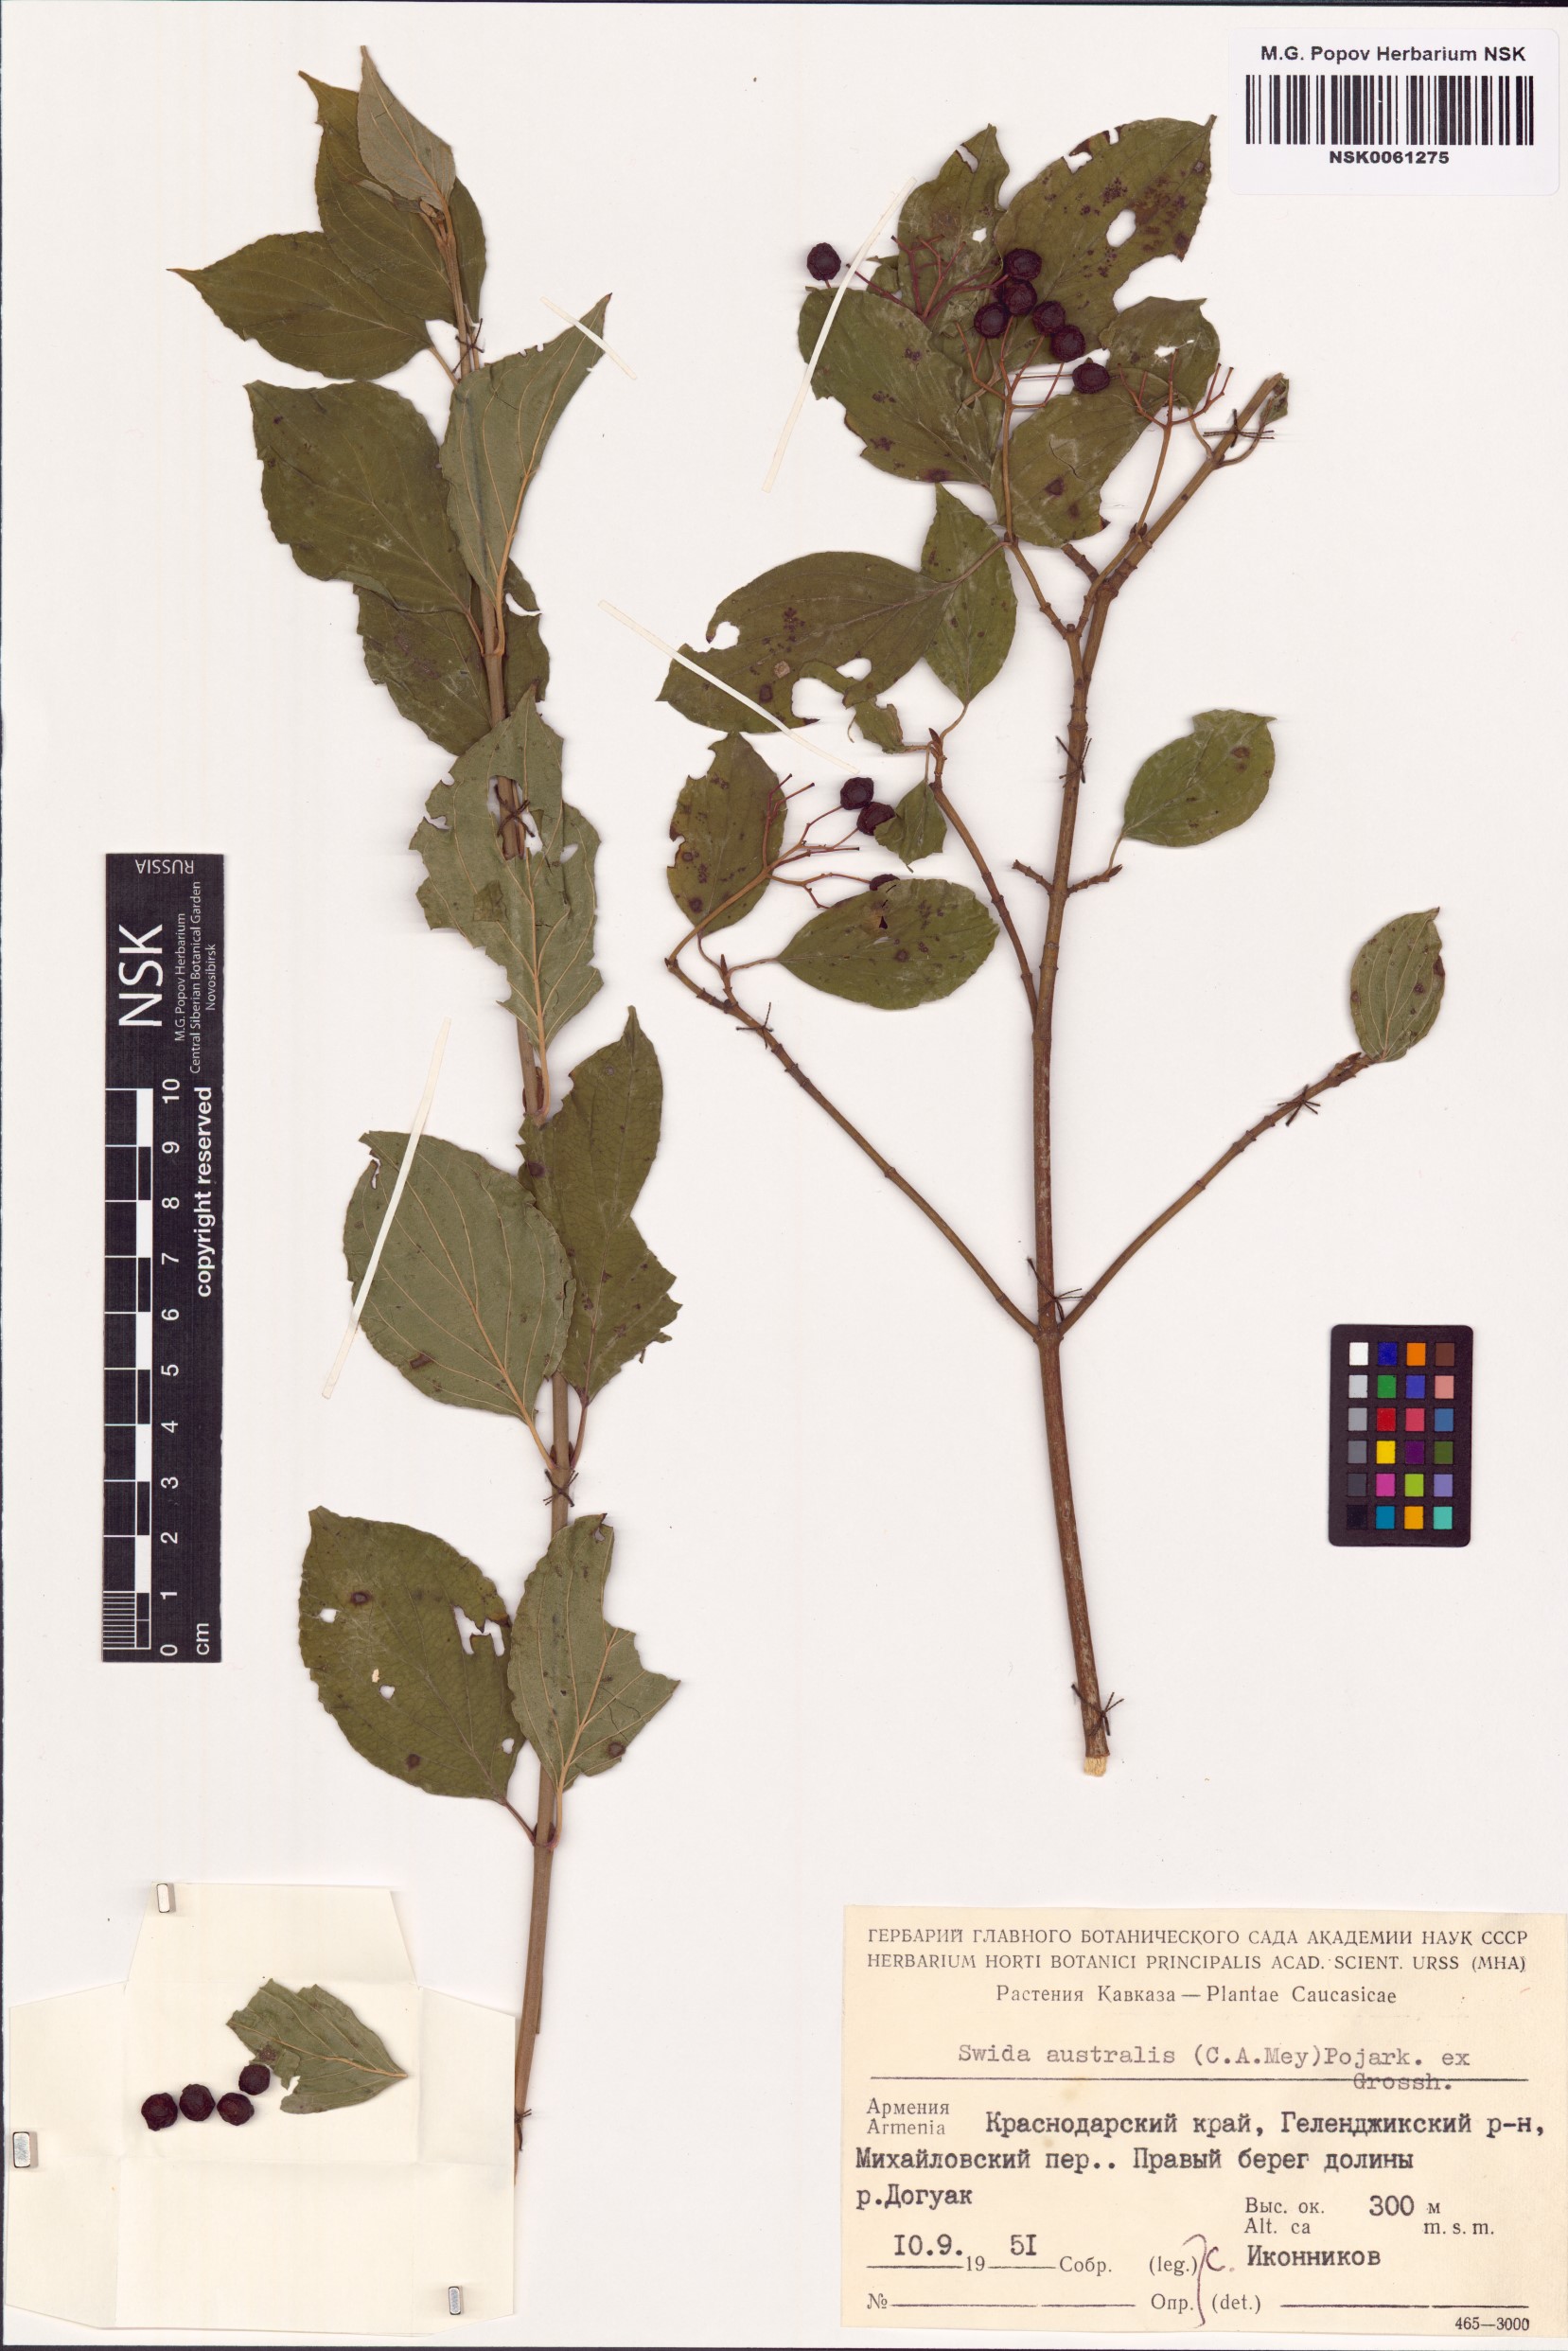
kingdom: Plantae
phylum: Tracheophyta
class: Magnoliopsida
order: Cornales
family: Cornaceae
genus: Cornus
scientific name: Cornus sanguinea
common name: Dogwood
